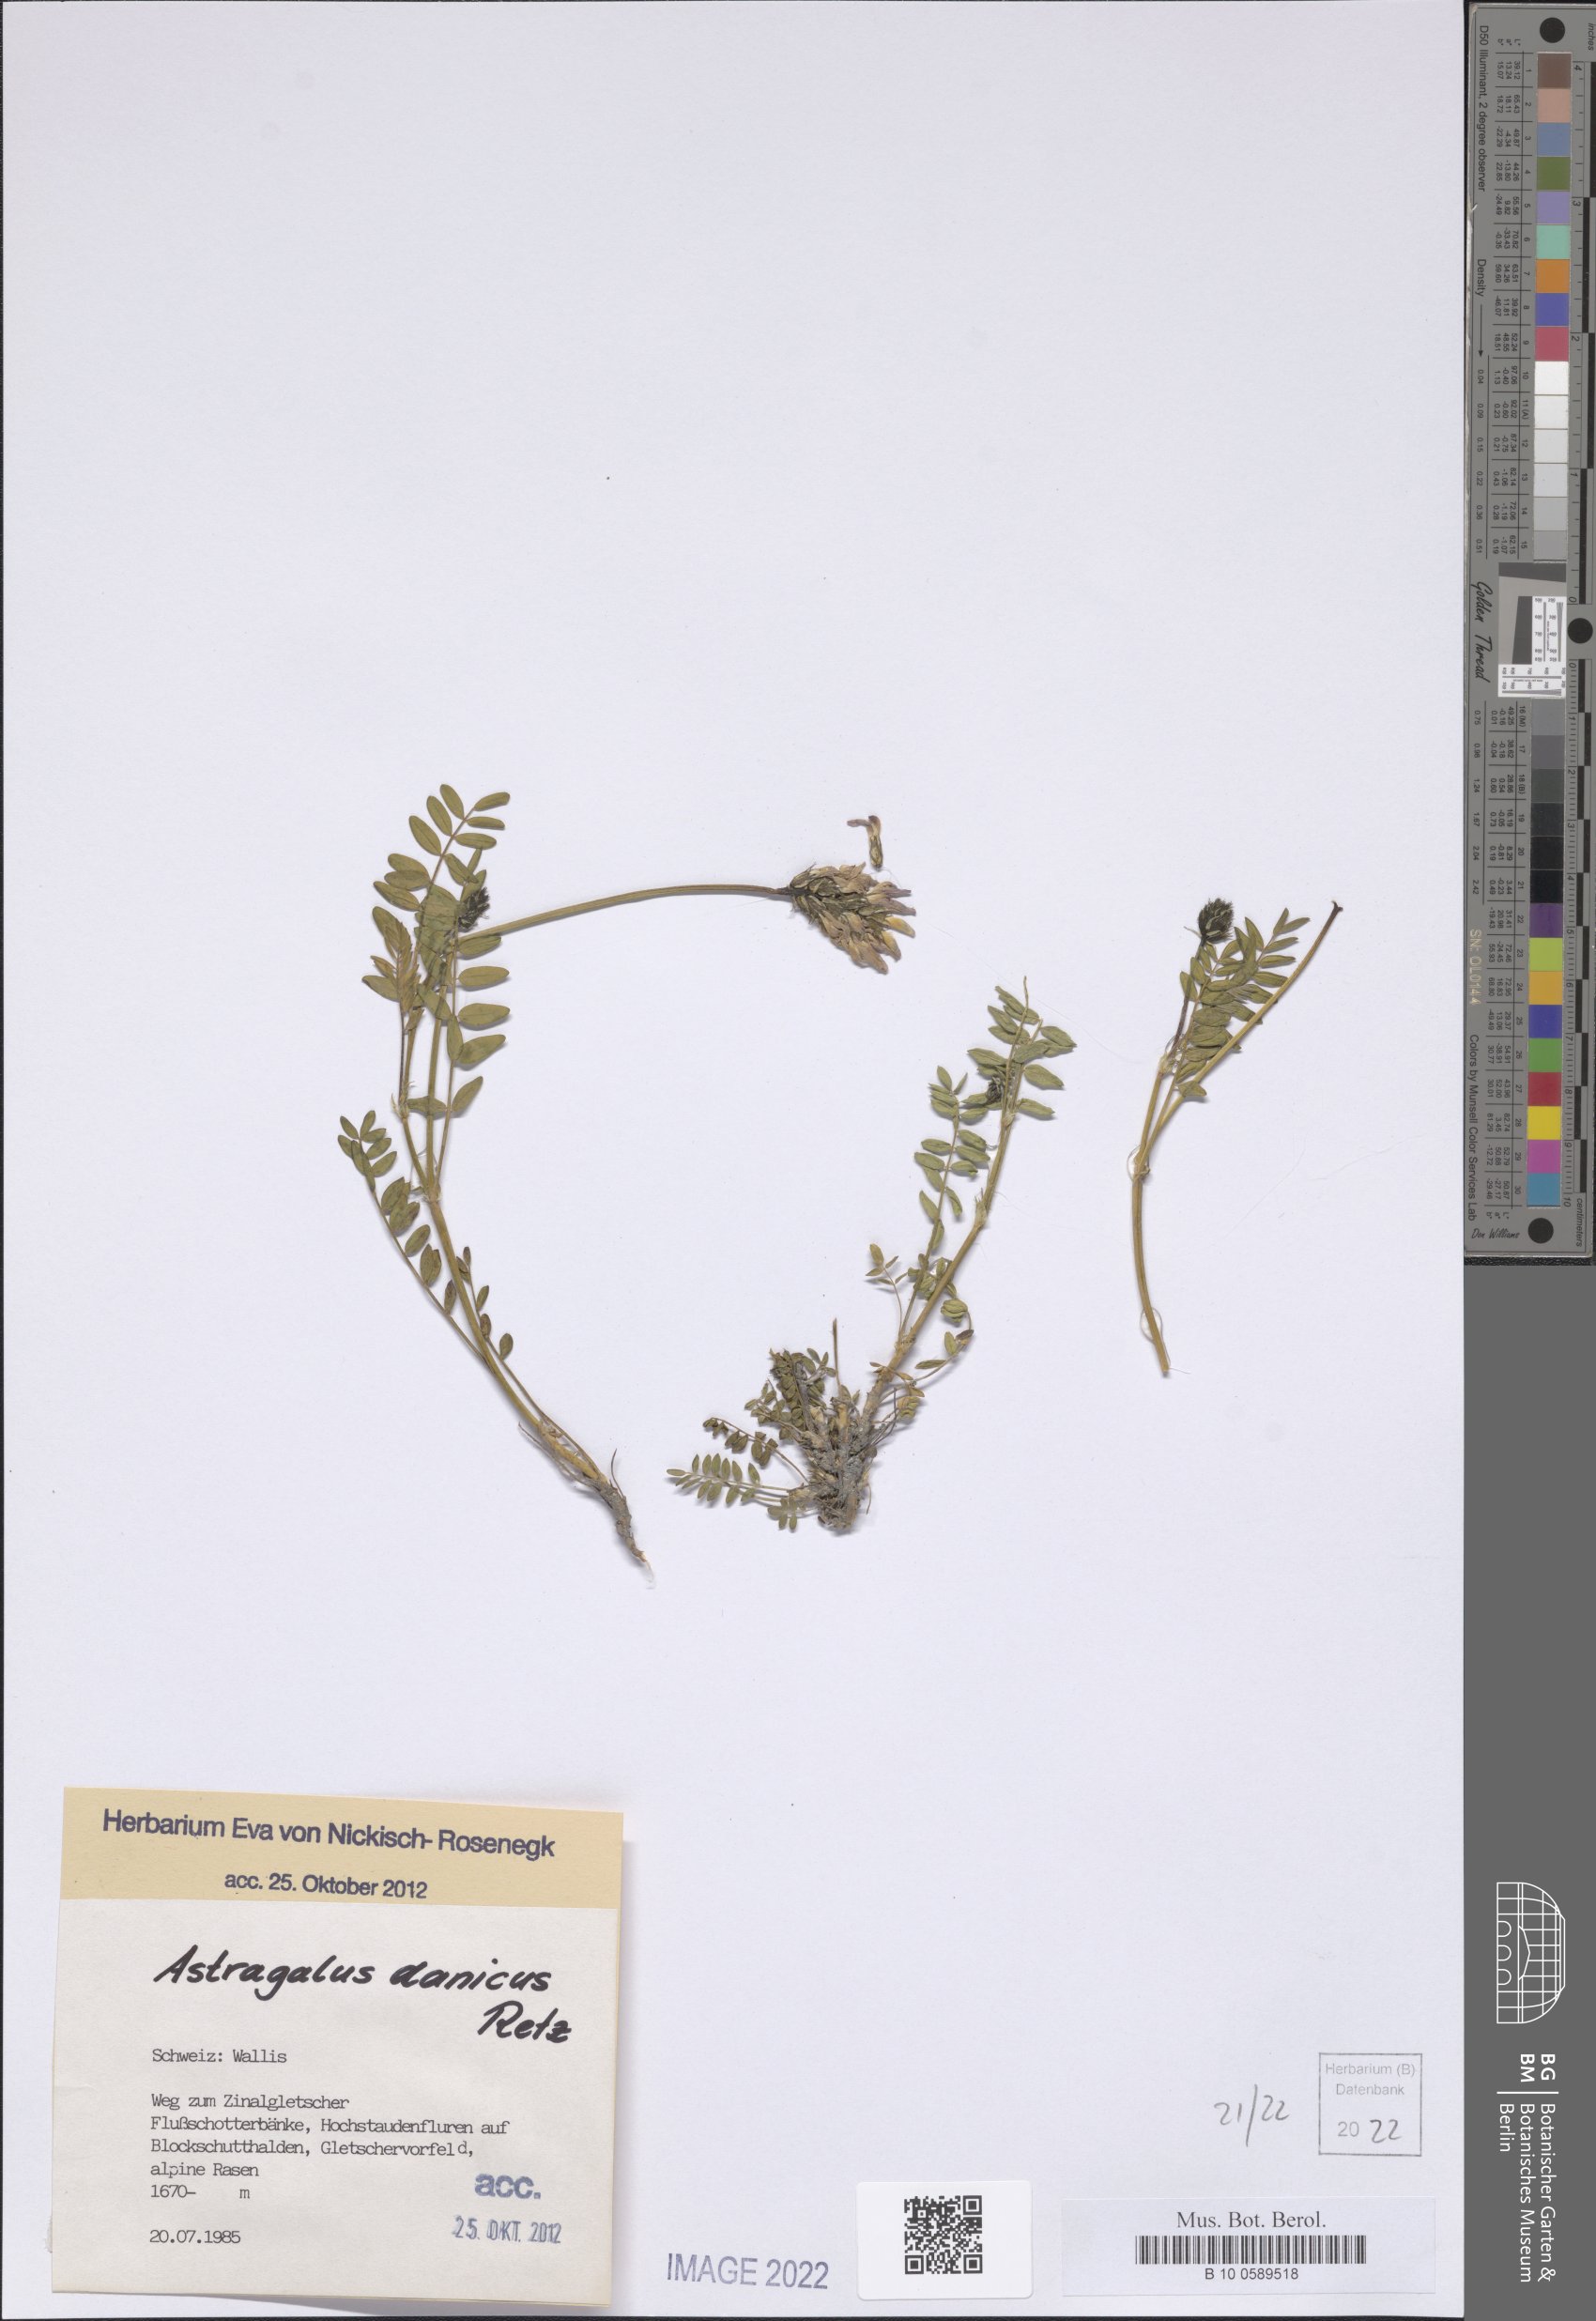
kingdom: Plantae
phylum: Tracheophyta
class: Magnoliopsida
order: Fabales
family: Fabaceae
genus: Astragalus
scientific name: Astragalus danicus
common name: Purple milk-vetch
